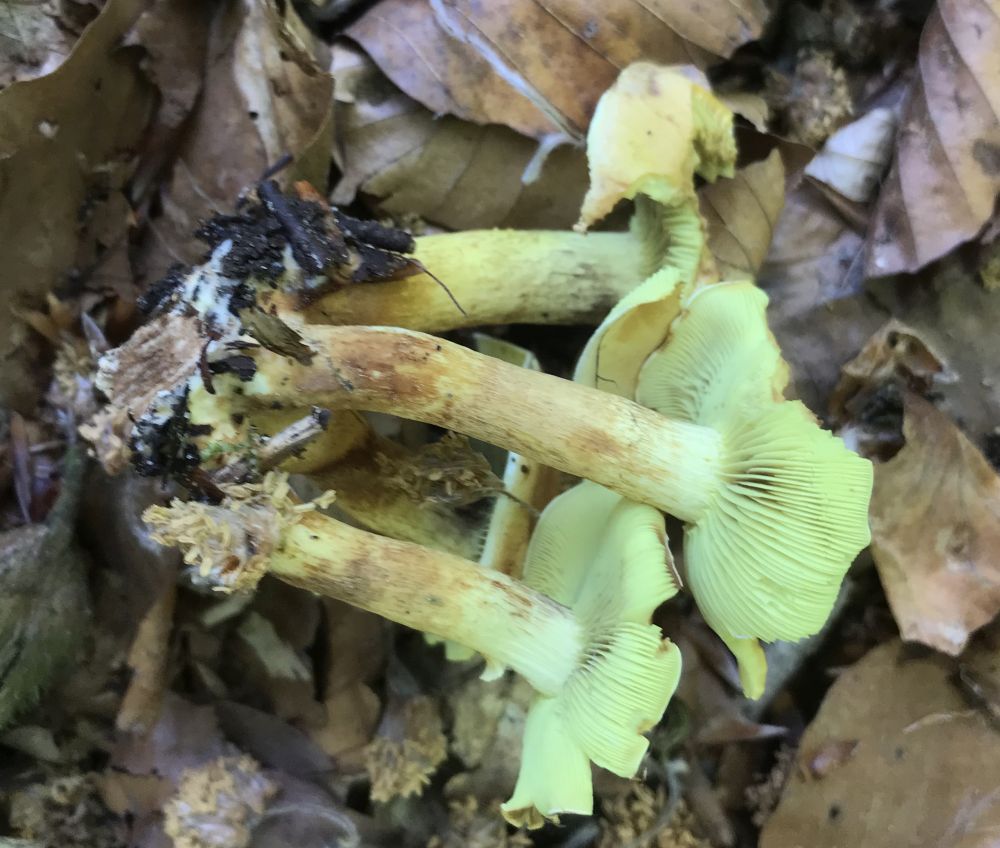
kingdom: Fungi
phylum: Basidiomycota
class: Agaricomycetes
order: Agaricales
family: Strophariaceae
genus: Hypholoma
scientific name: Hypholoma fasciculare
